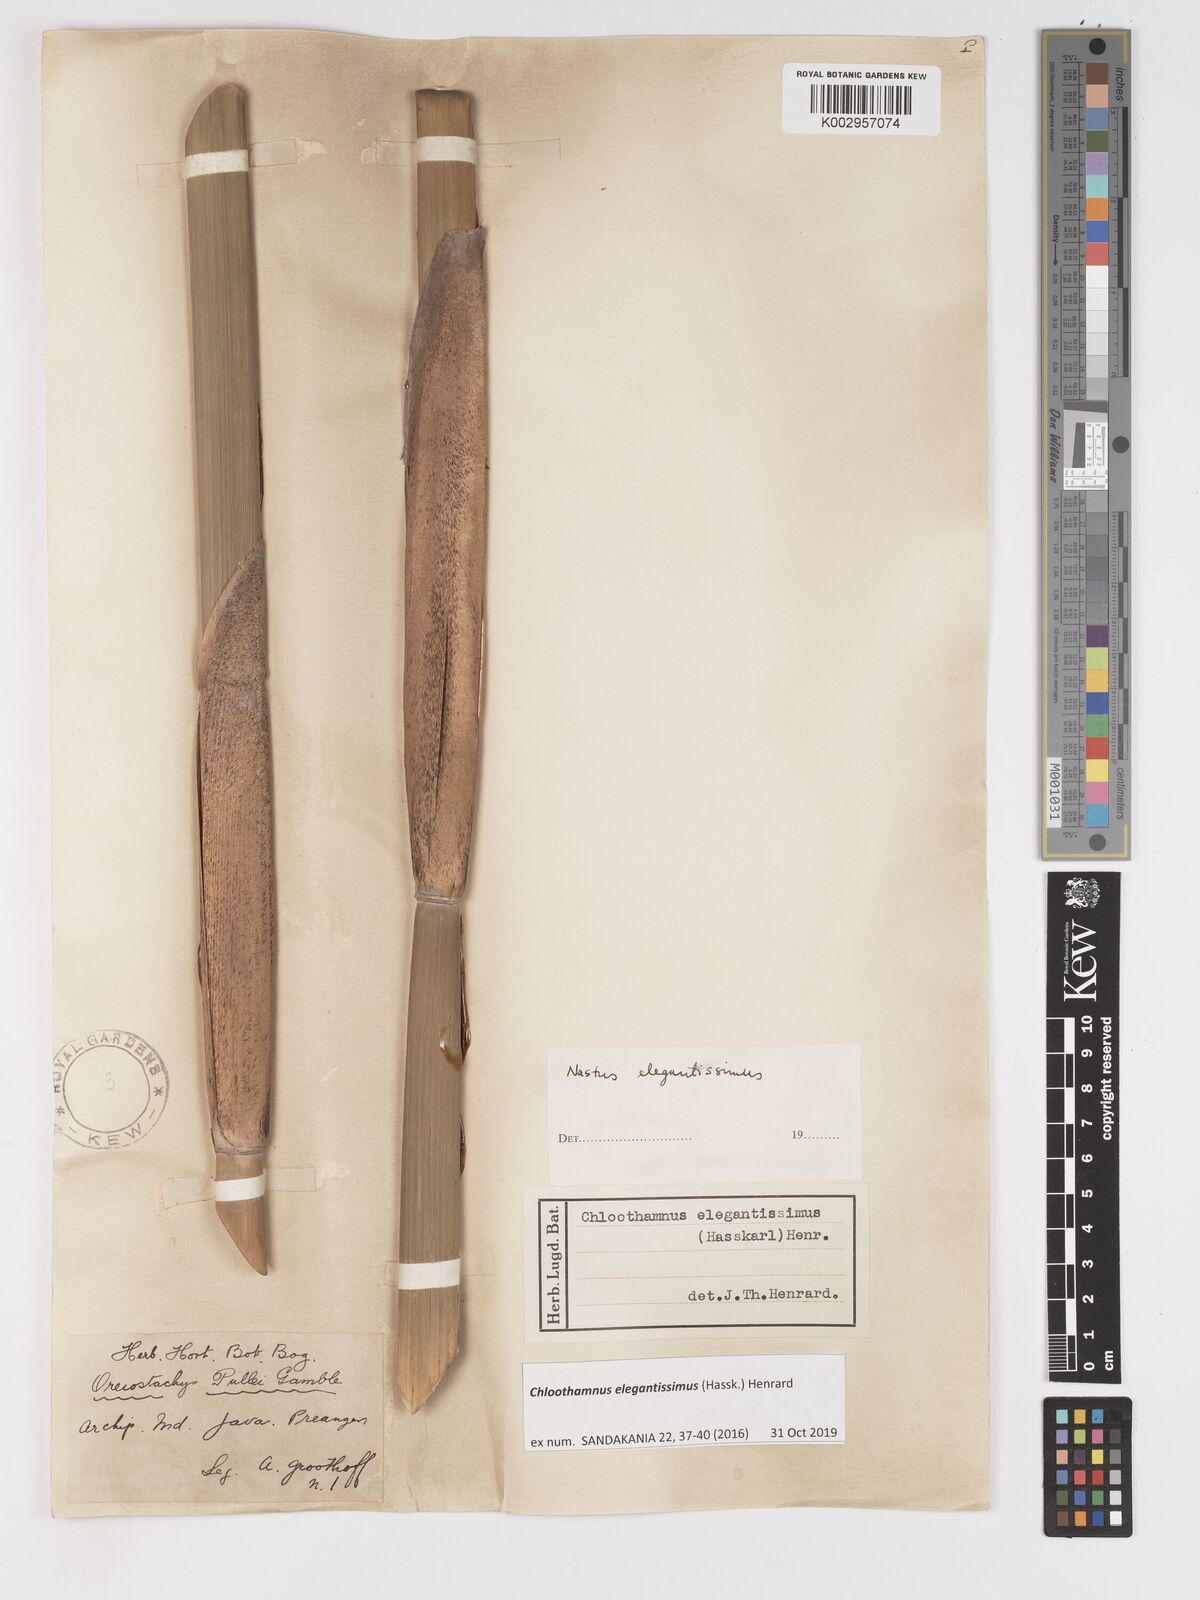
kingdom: Plantae
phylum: Tracheophyta
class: Liliopsida
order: Poales
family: Poaceae
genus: Chloothamnus
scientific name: Chloothamnus elegantissimus
